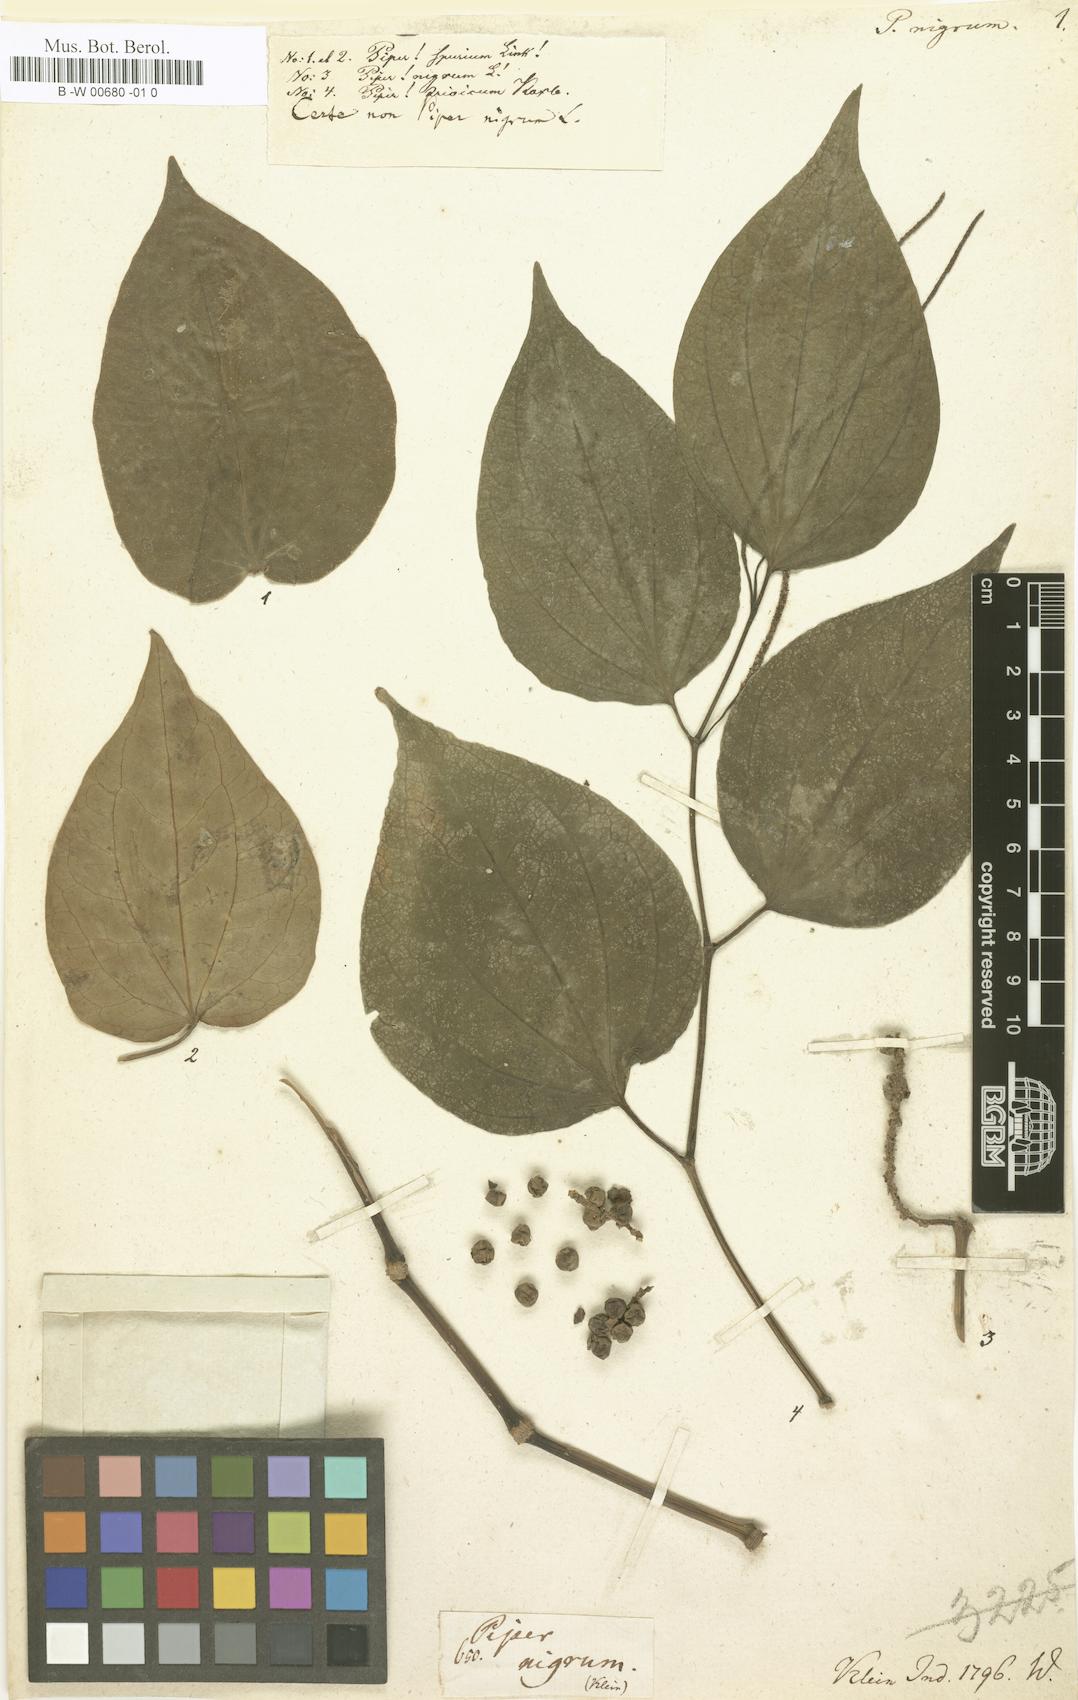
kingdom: Plantae
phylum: Tracheophyta
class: Magnoliopsida
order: Piperales
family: Piperaceae
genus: Piper
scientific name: Piper nigrum
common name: Black pepper
